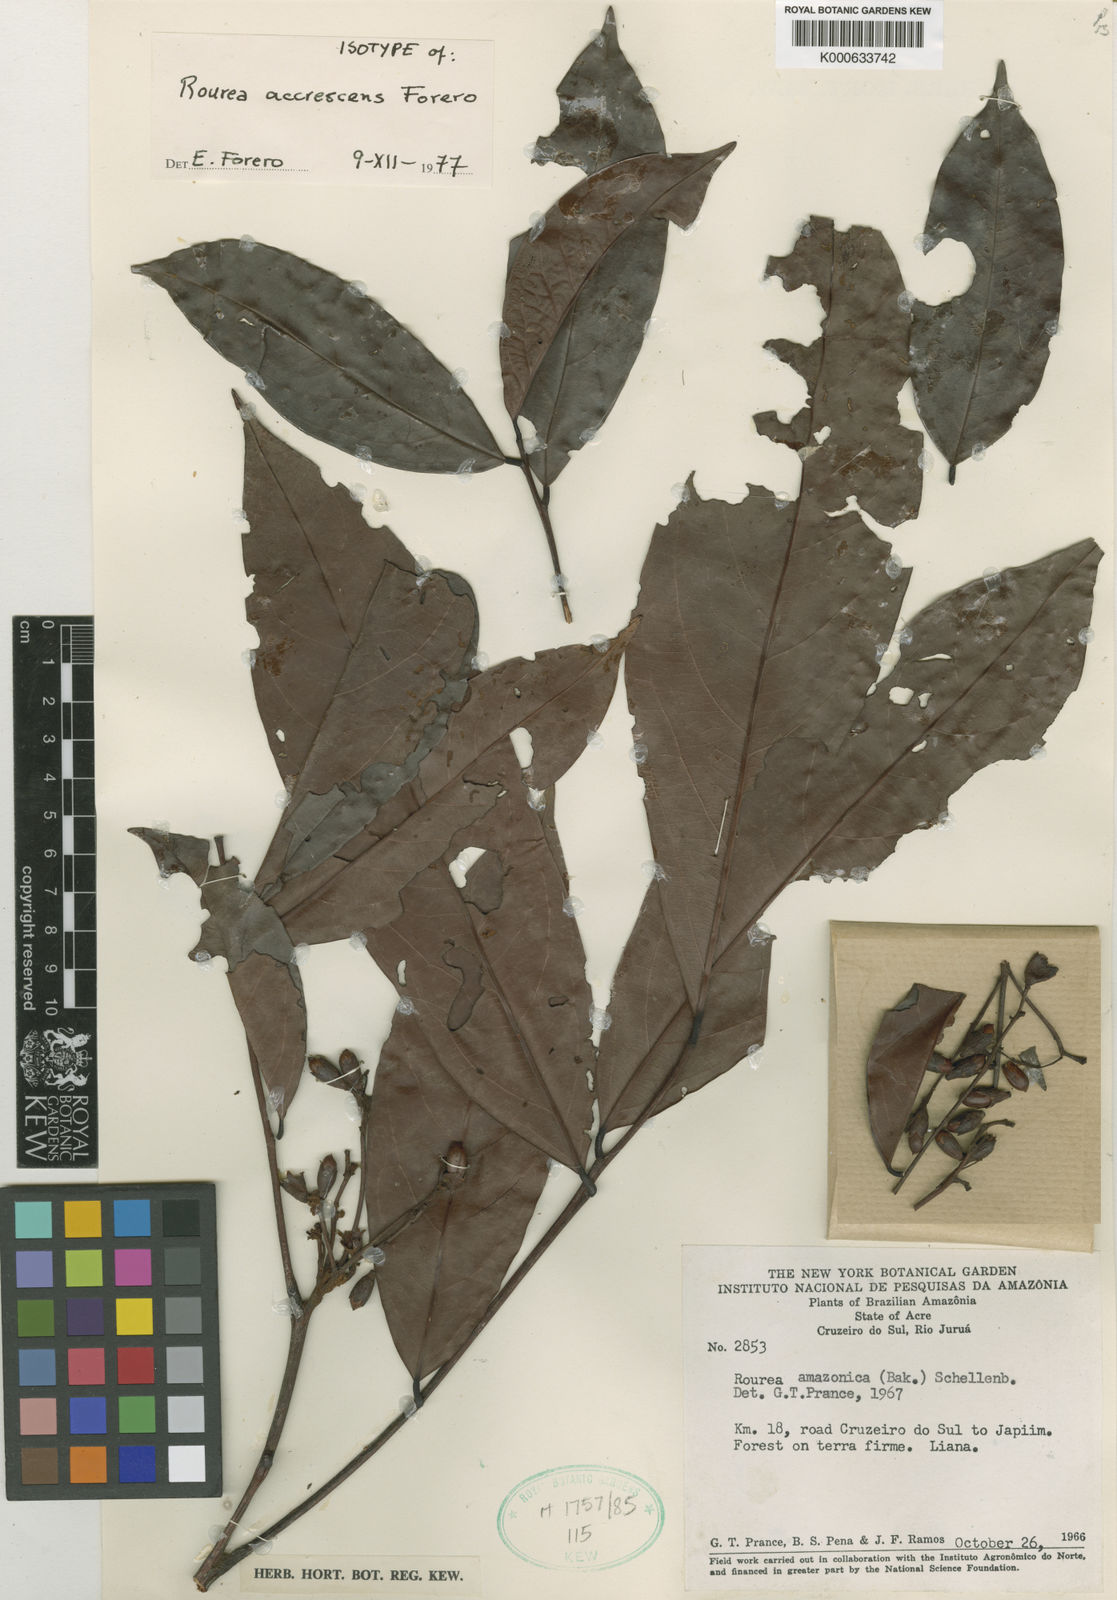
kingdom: Plantae
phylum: Tracheophyta
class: Magnoliopsida
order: Oxalidales
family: Connaraceae
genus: Rourea
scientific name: Rourea accrescens
